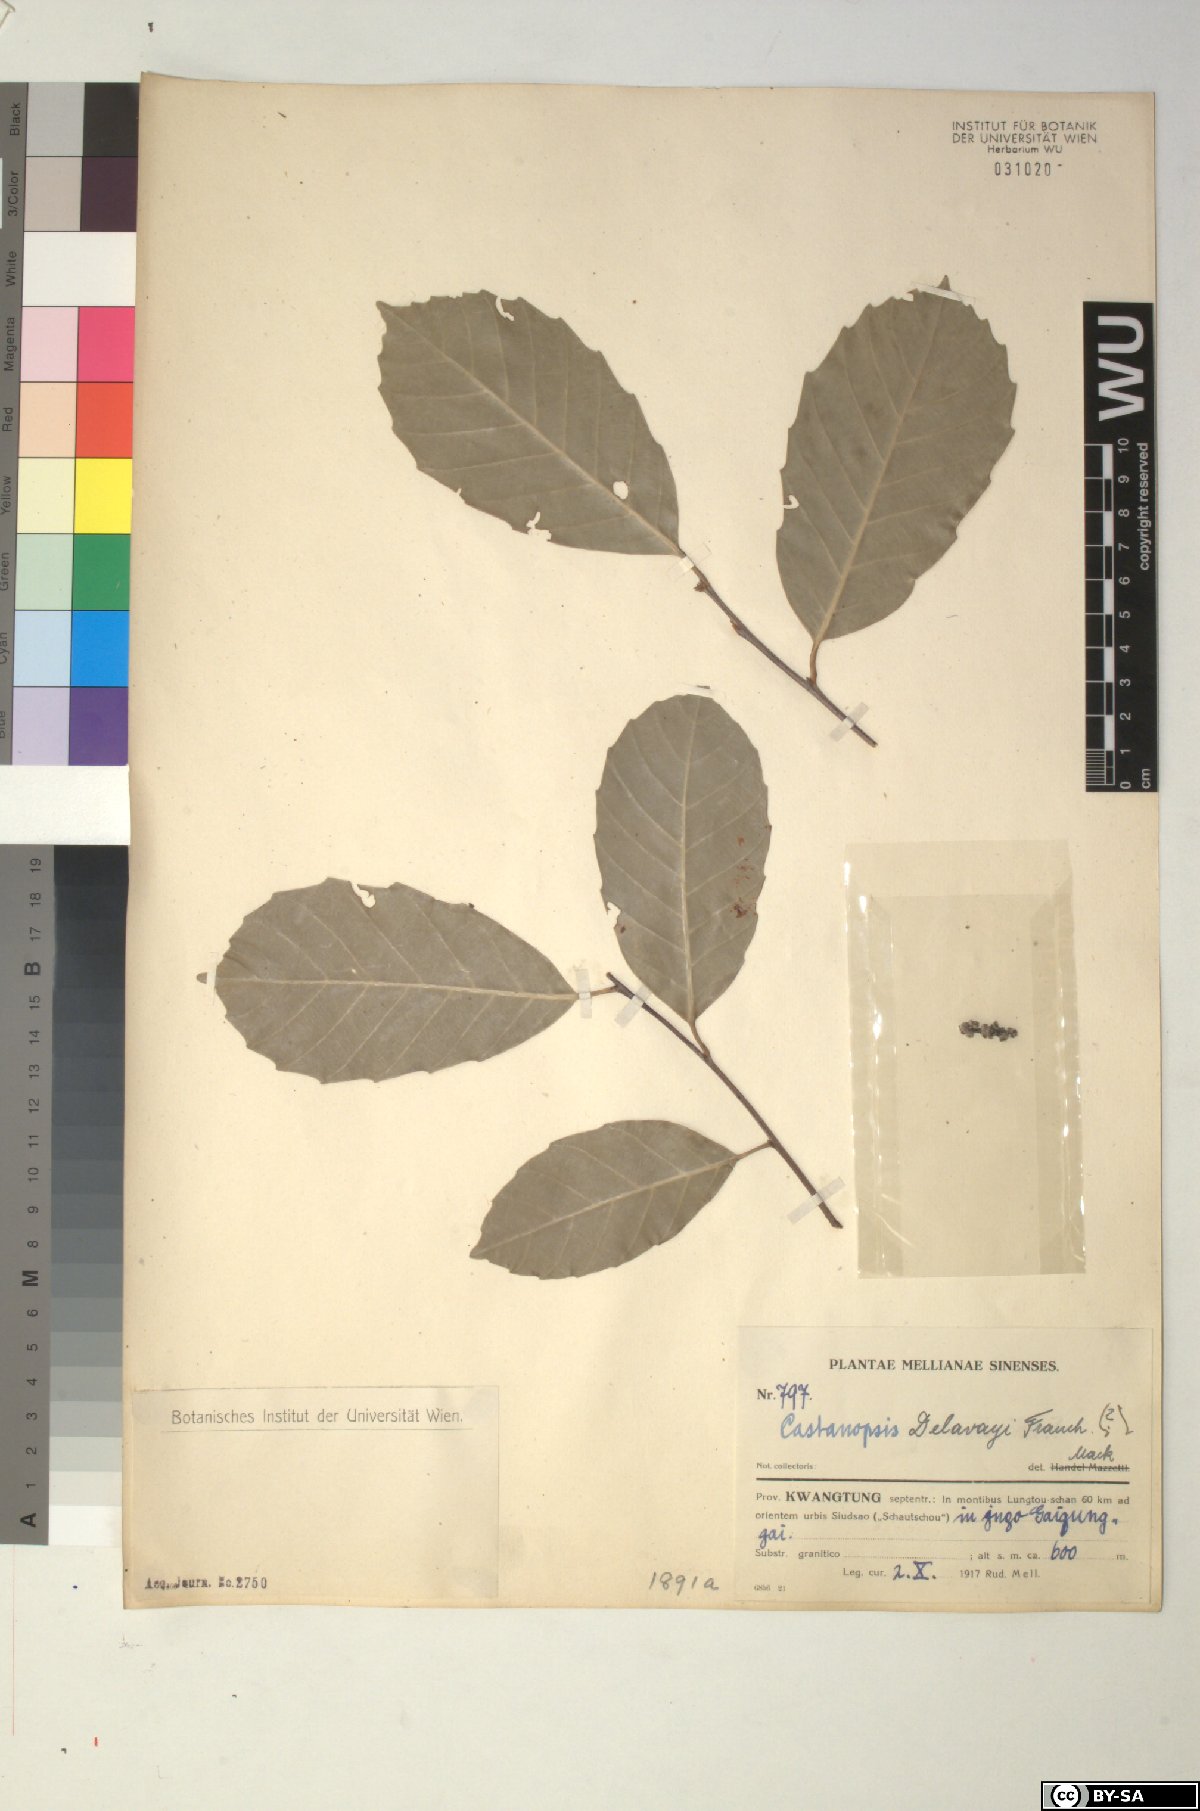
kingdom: Plantae
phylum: Tracheophyta
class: Magnoliopsida
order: Fagales
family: Fagaceae
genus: Castanopsis
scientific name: Castanopsis delavayi
